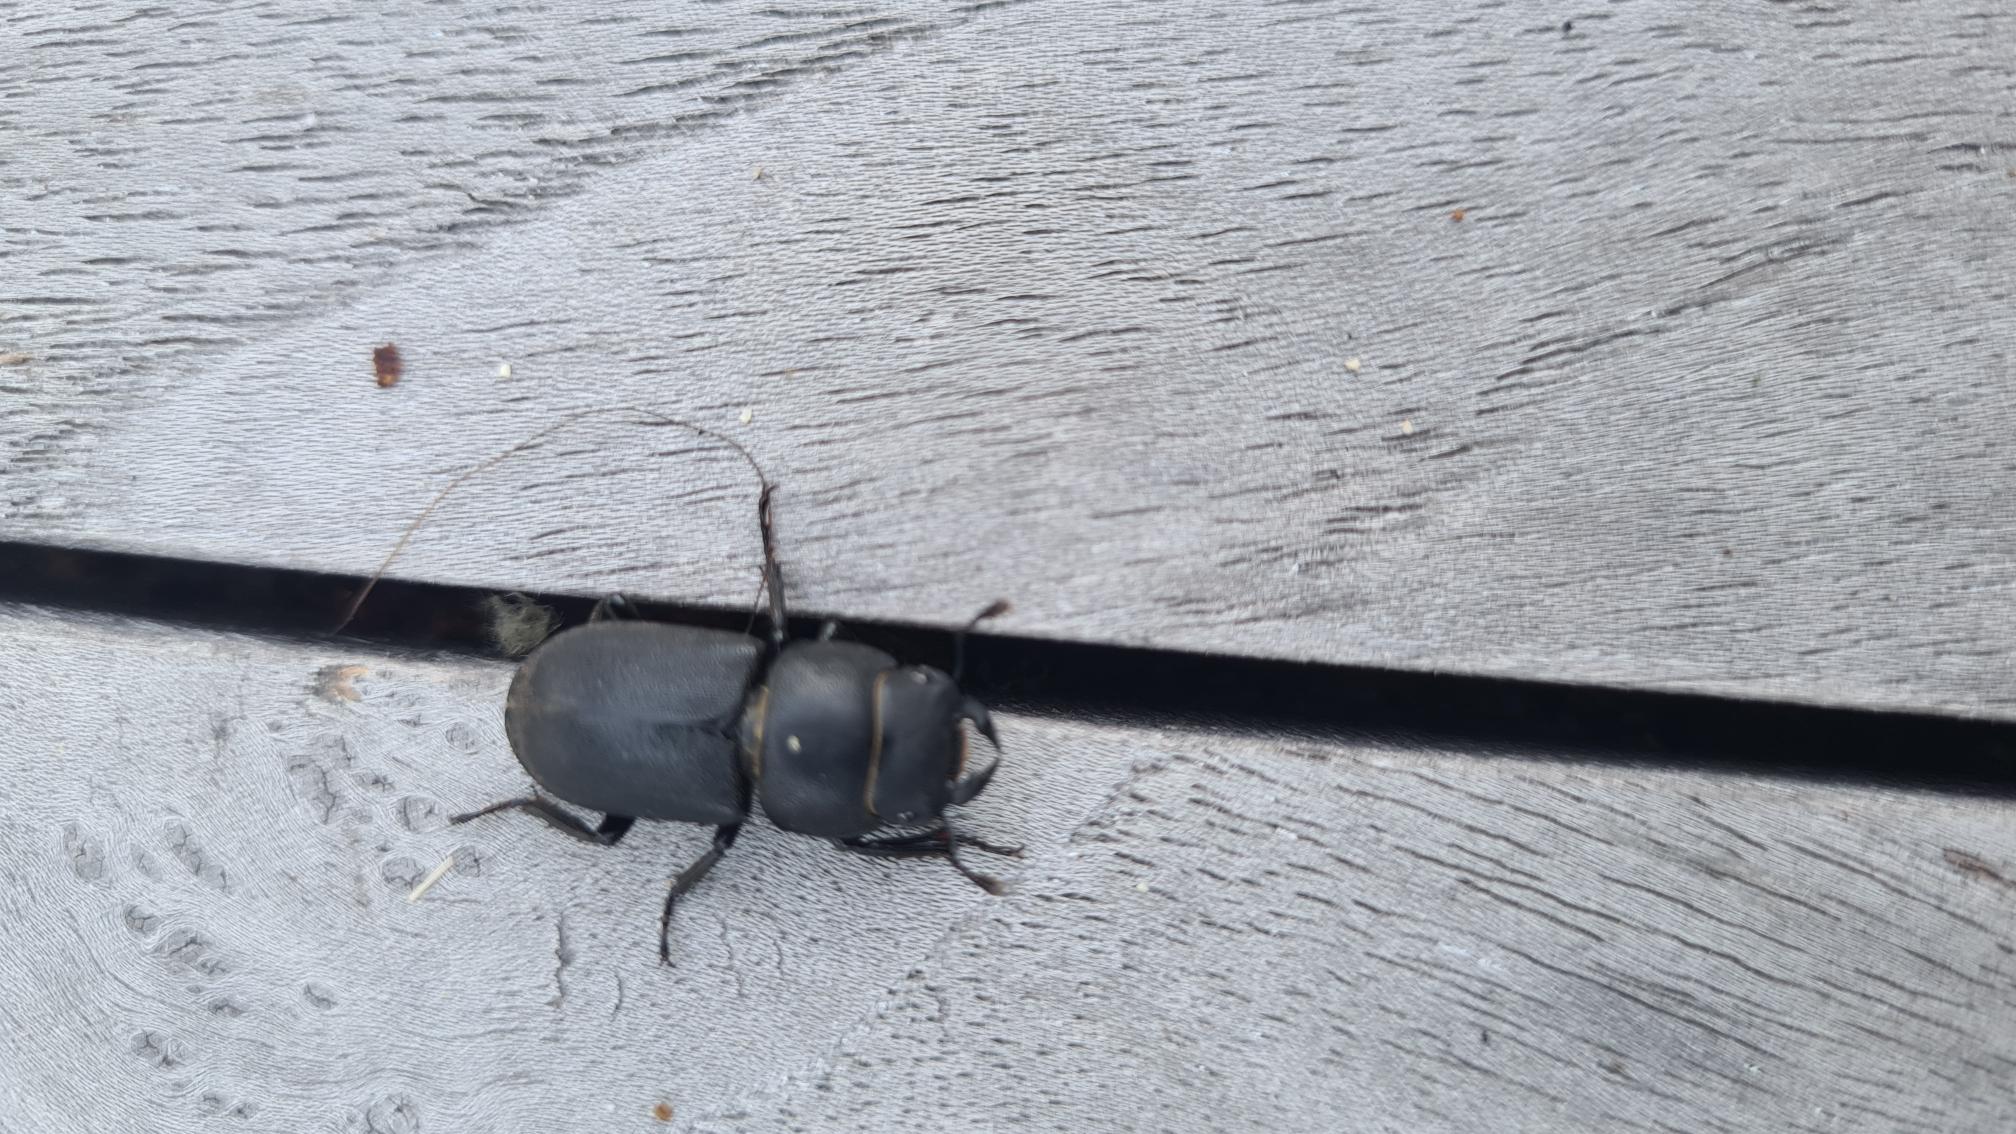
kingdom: Animalia
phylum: Arthropoda
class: Insecta
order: Coleoptera
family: Lucanidae
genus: Dorcus
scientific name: Dorcus parallelipipedus
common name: Bøghjort
